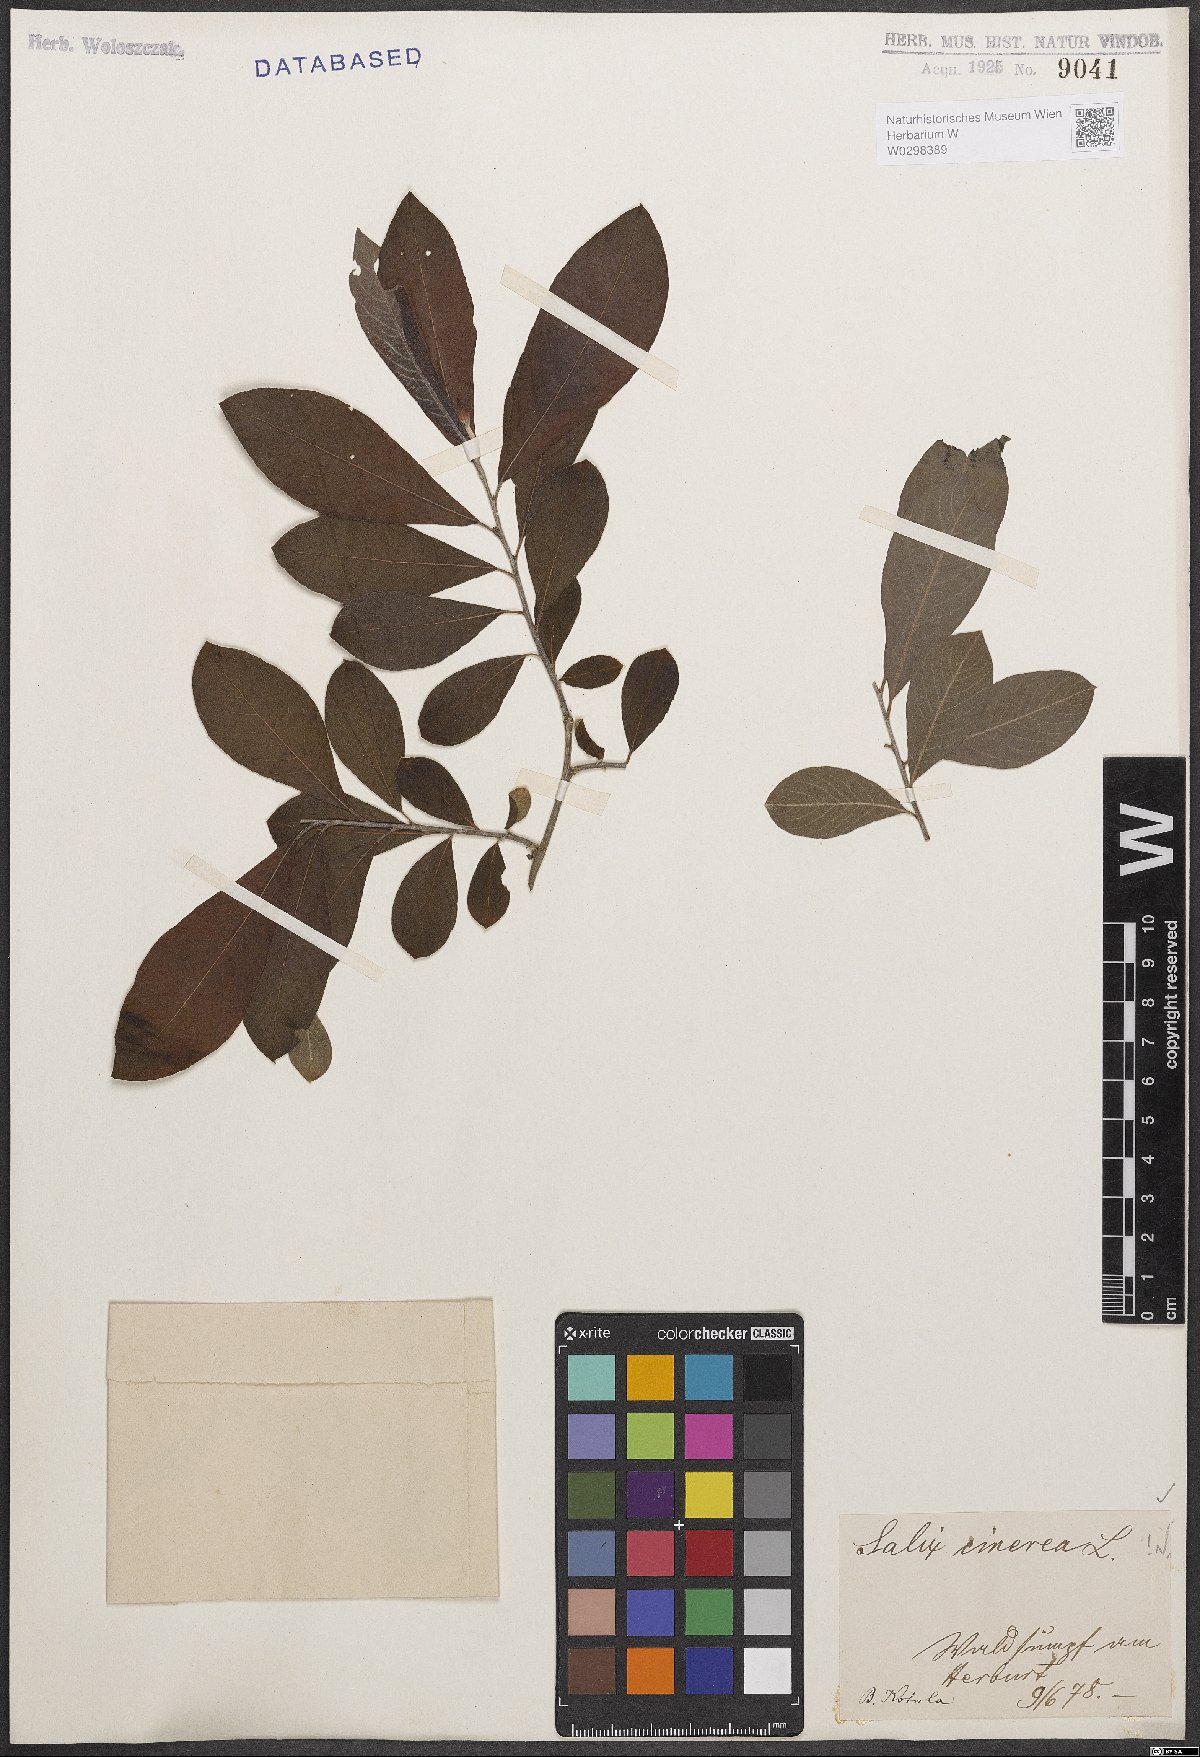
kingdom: Plantae
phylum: Tracheophyta
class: Magnoliopsida
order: Malpighiales
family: Salicaceae
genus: Salix
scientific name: Salix cinerea
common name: Common sallow
